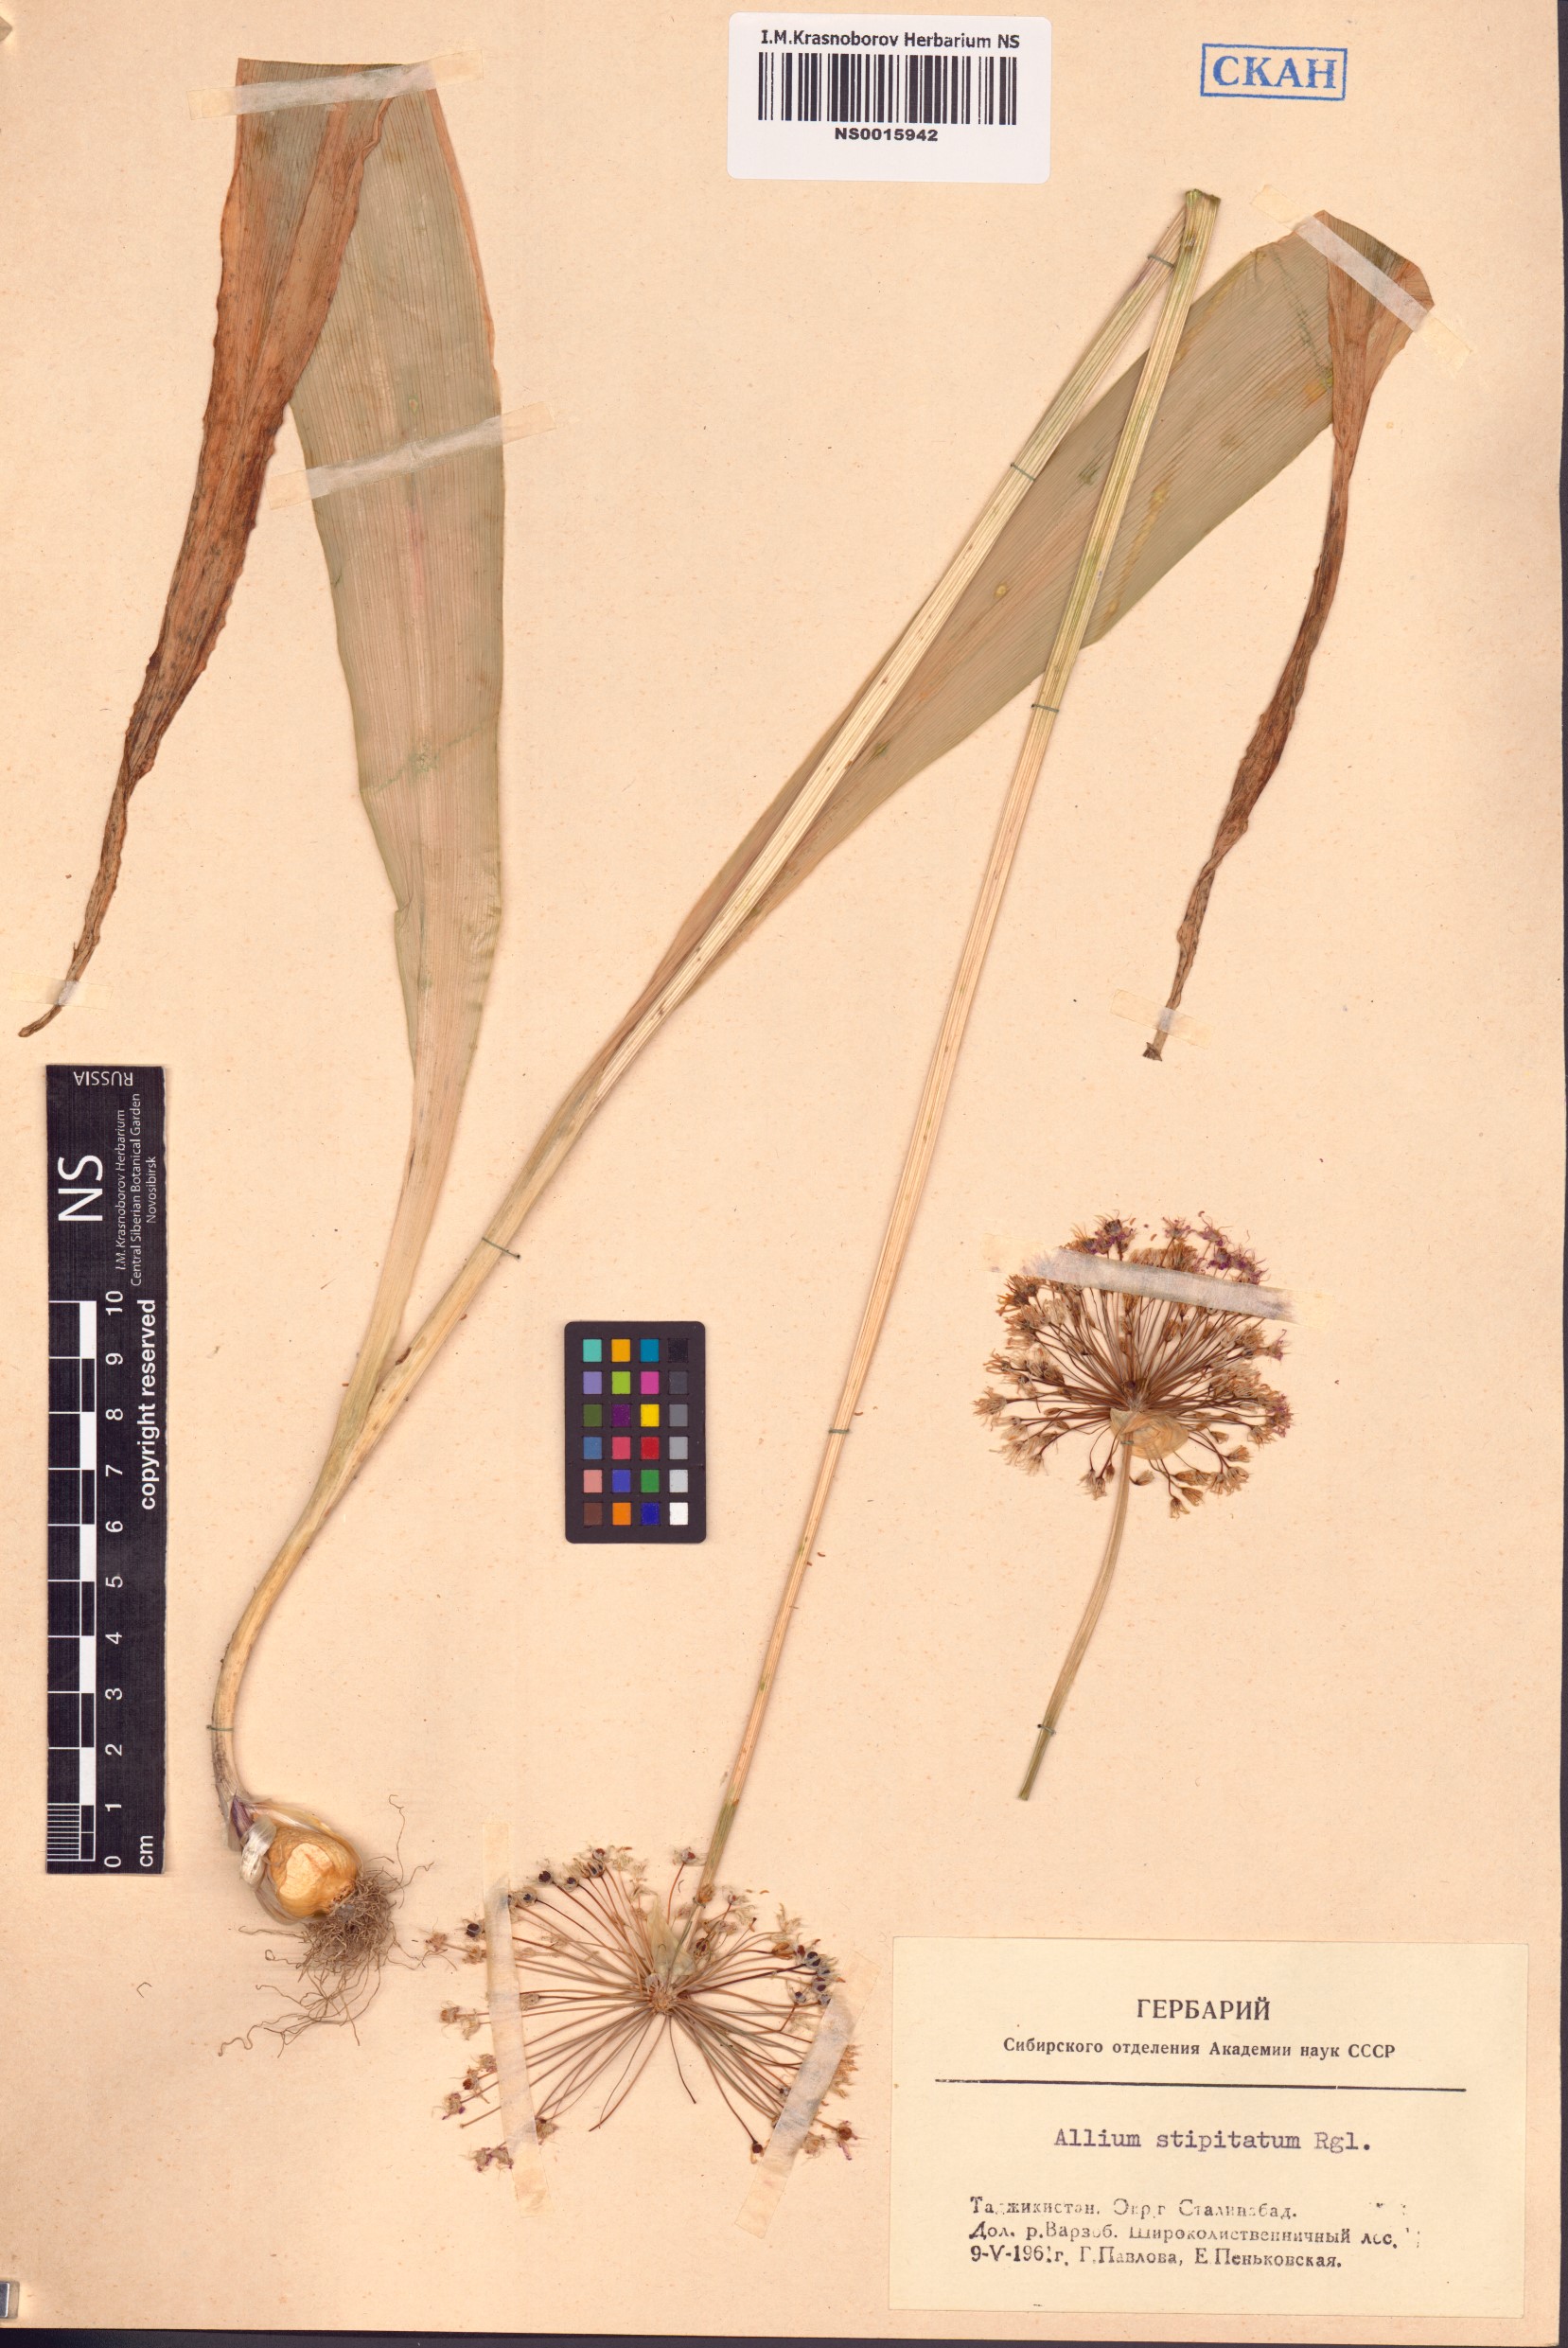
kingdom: Plantae
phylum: Tracheophyta
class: Liliopsida
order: Asparagales
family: Amaryllidaceae
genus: Allium
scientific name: Allium stipitatum
